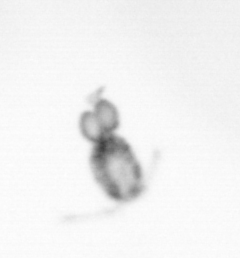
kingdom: Animalia
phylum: Arthropoda
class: Copepoda
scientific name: Copepoda
